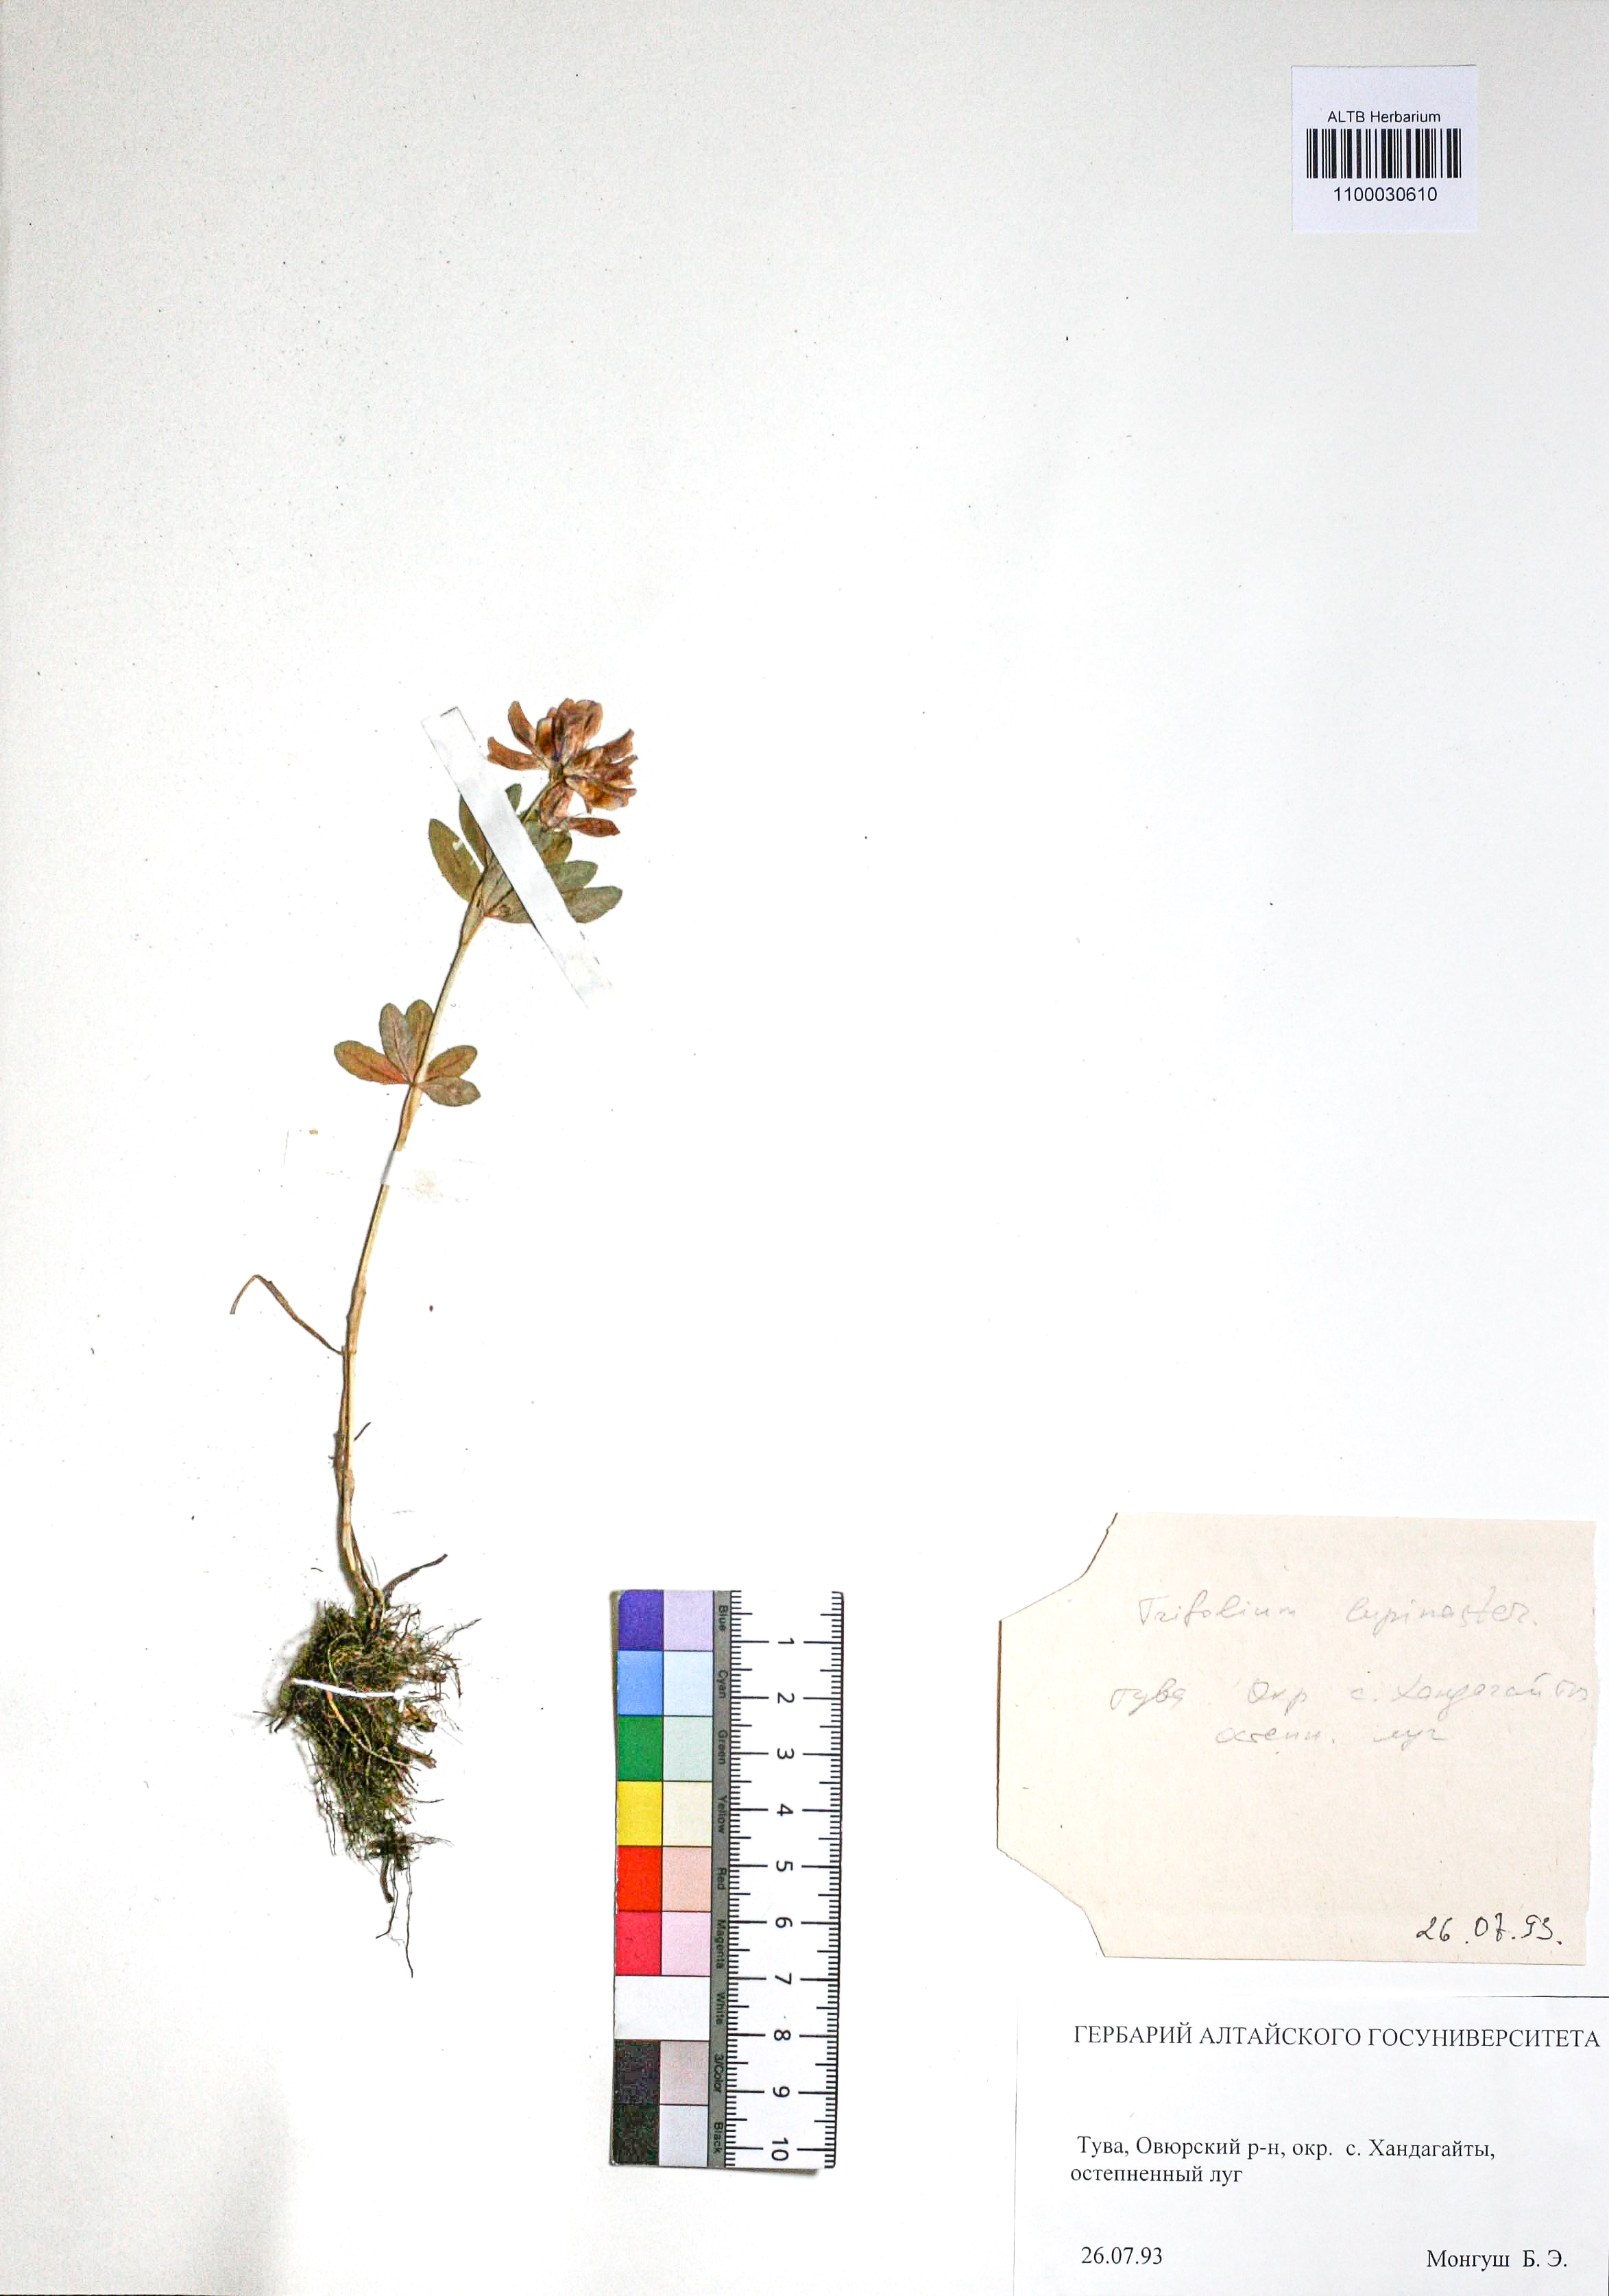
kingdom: Plantae
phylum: Tracheophyta
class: Magnoliopsida
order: Fabales
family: Fabaceae
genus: Trifolium
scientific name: Trifolium lupinaster
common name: Lupine clover
